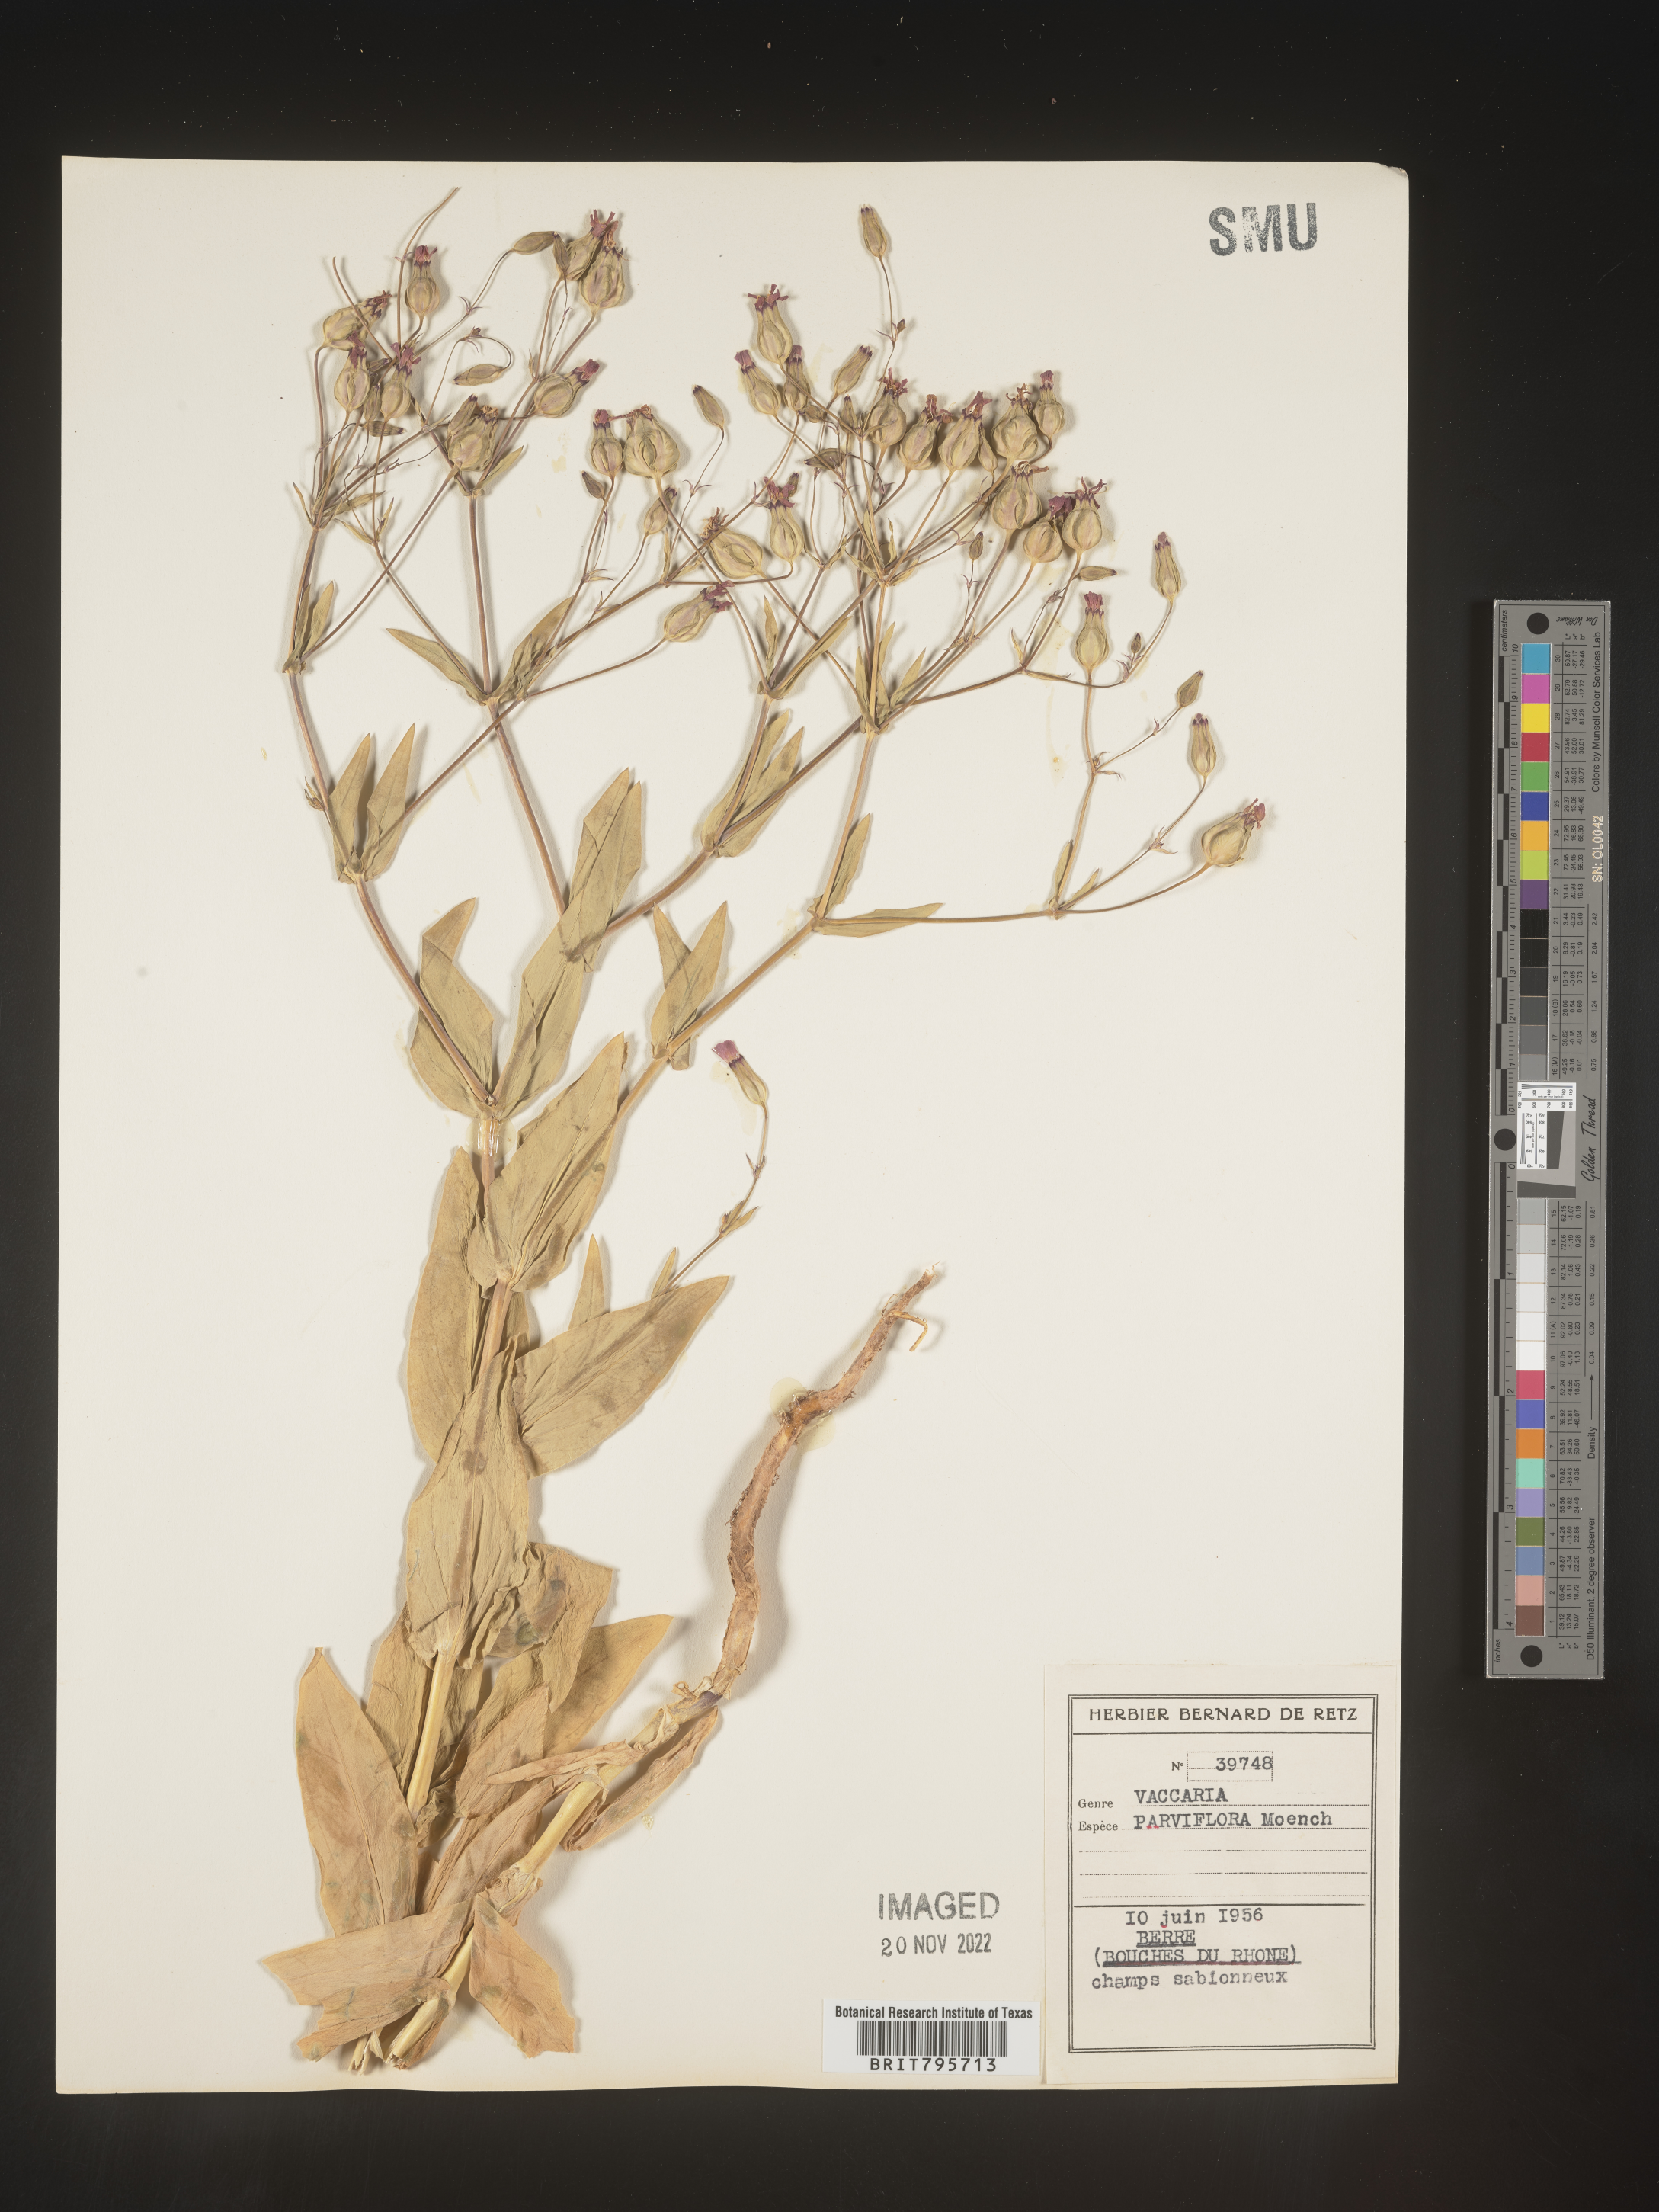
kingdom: Plantae
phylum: Tracheophyta
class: Magnoliopsida
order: Caryophyllales
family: Caryophyllaceae
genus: Vaccaria
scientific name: Vaccaria
